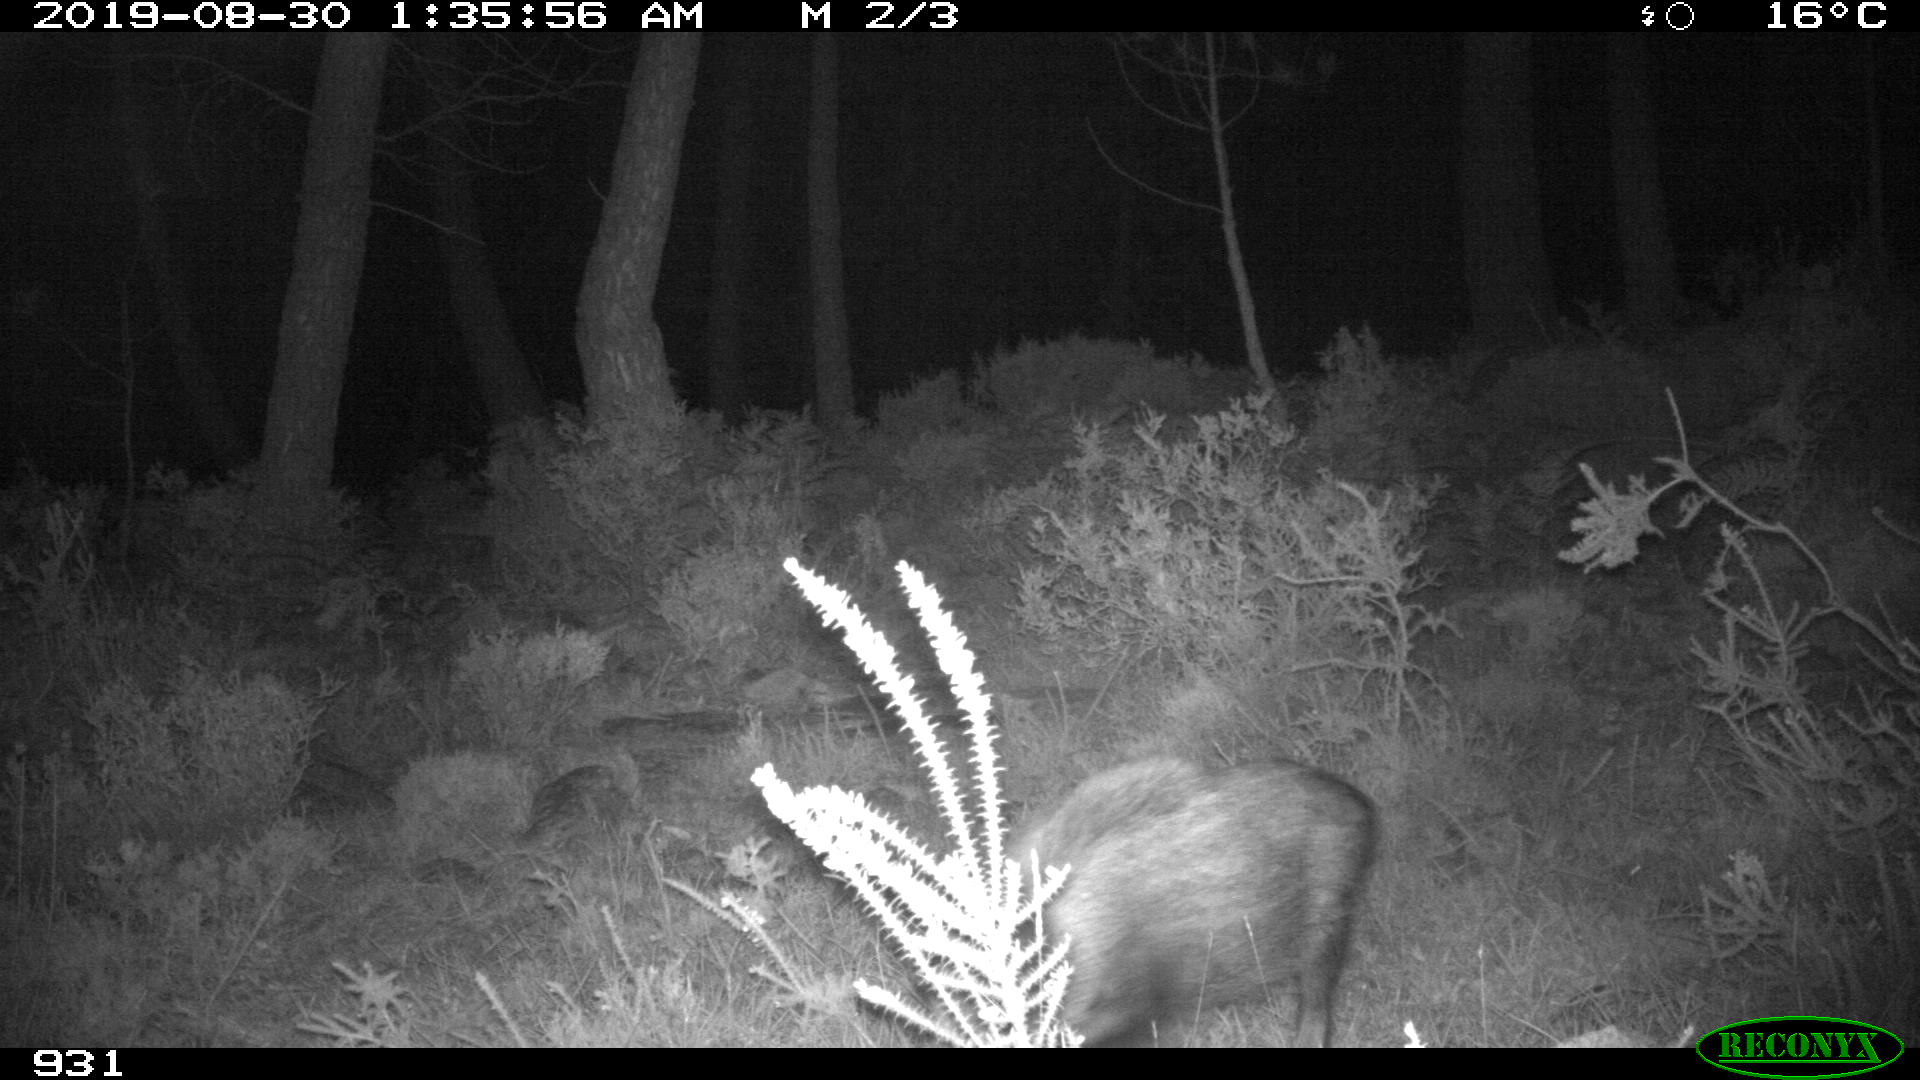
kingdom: Animalia
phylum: Chordata
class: Mammalia
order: Artiodactyla
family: Suidae
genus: Sus
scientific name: Sus scrofa
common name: Wild boar
